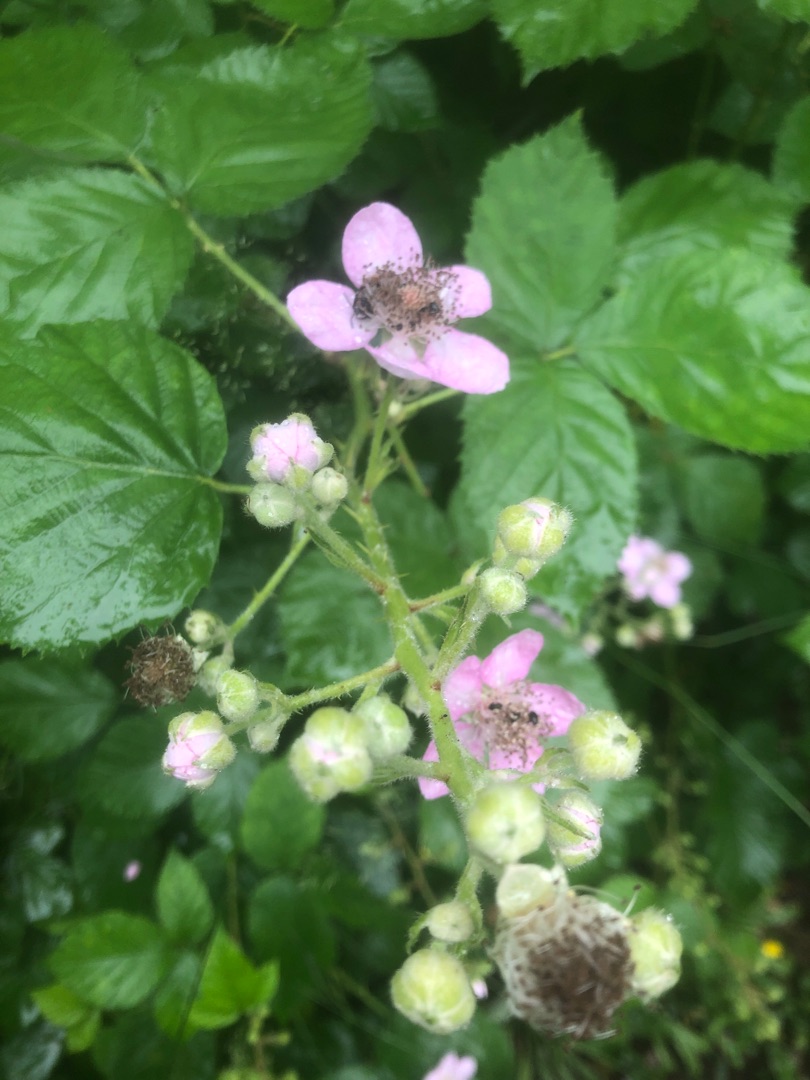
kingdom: Plantae
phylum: Tracheophyta
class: Magnoliopsida
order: Rosales
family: Rosaceae
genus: Rubus
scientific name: Rubus
